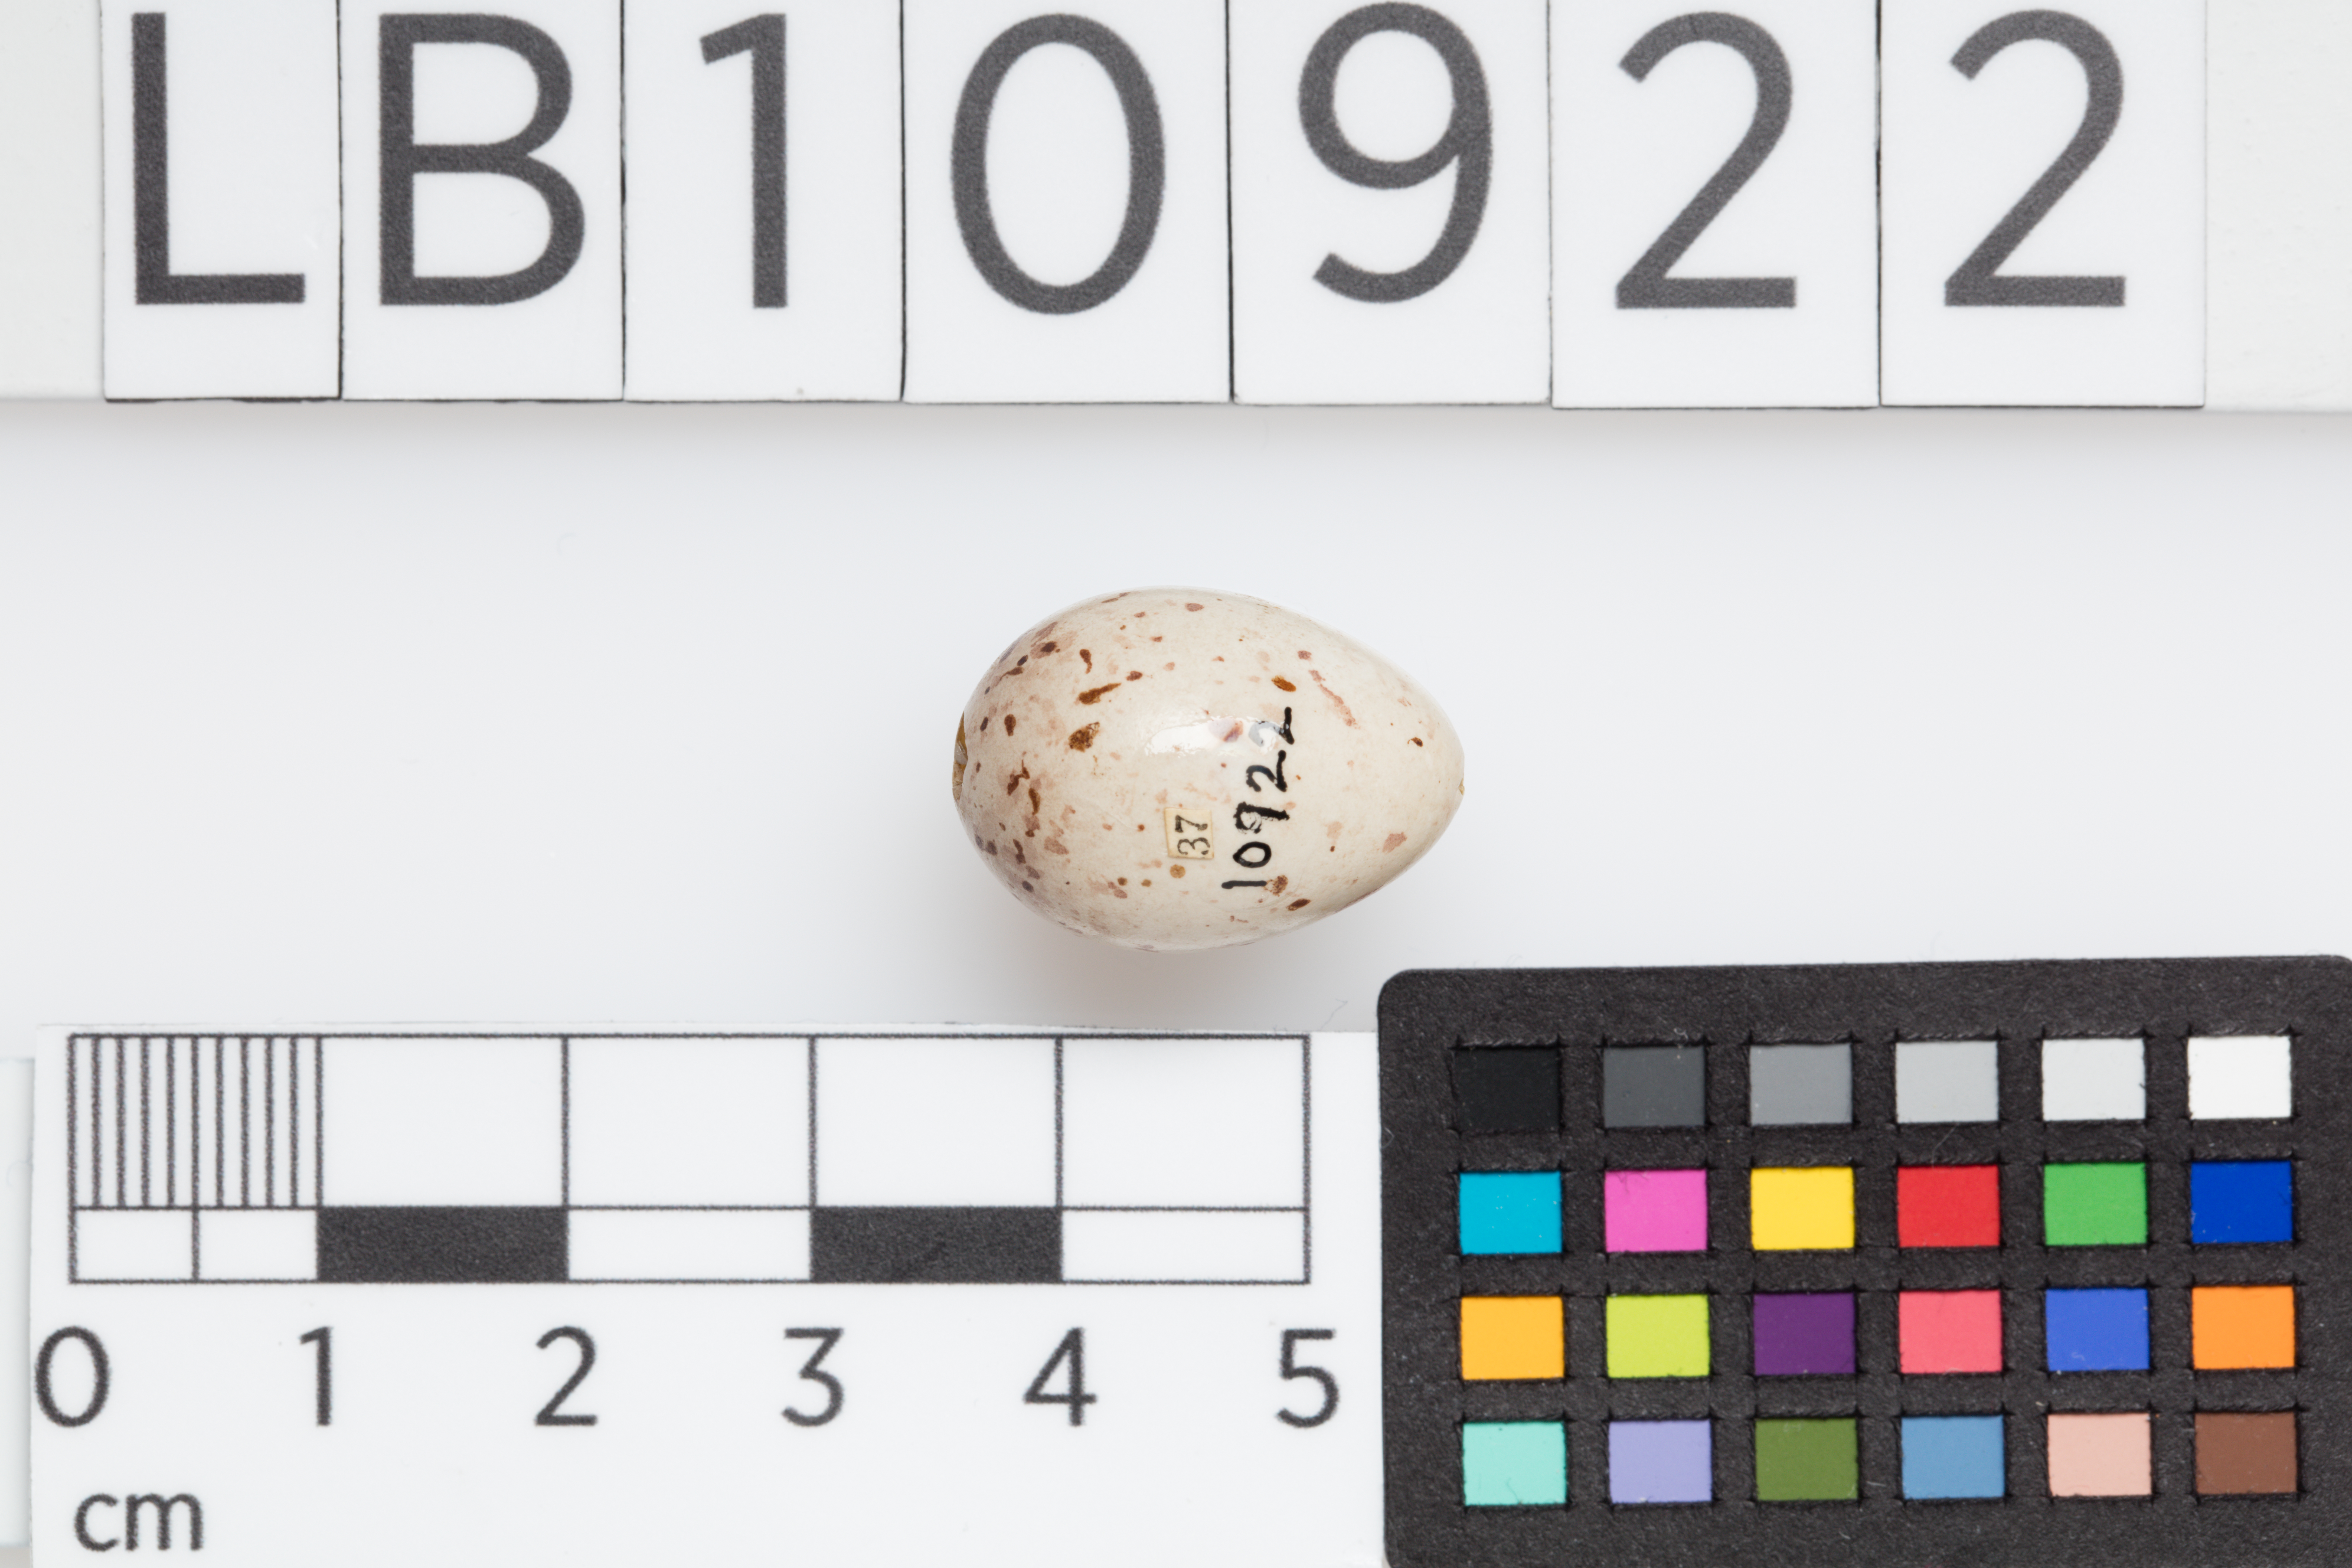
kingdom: Animalia
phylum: Chordata
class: Aves
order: Passeriformes
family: Fringillidae
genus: Linaria
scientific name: Linaria cannabina
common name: Common linnet
